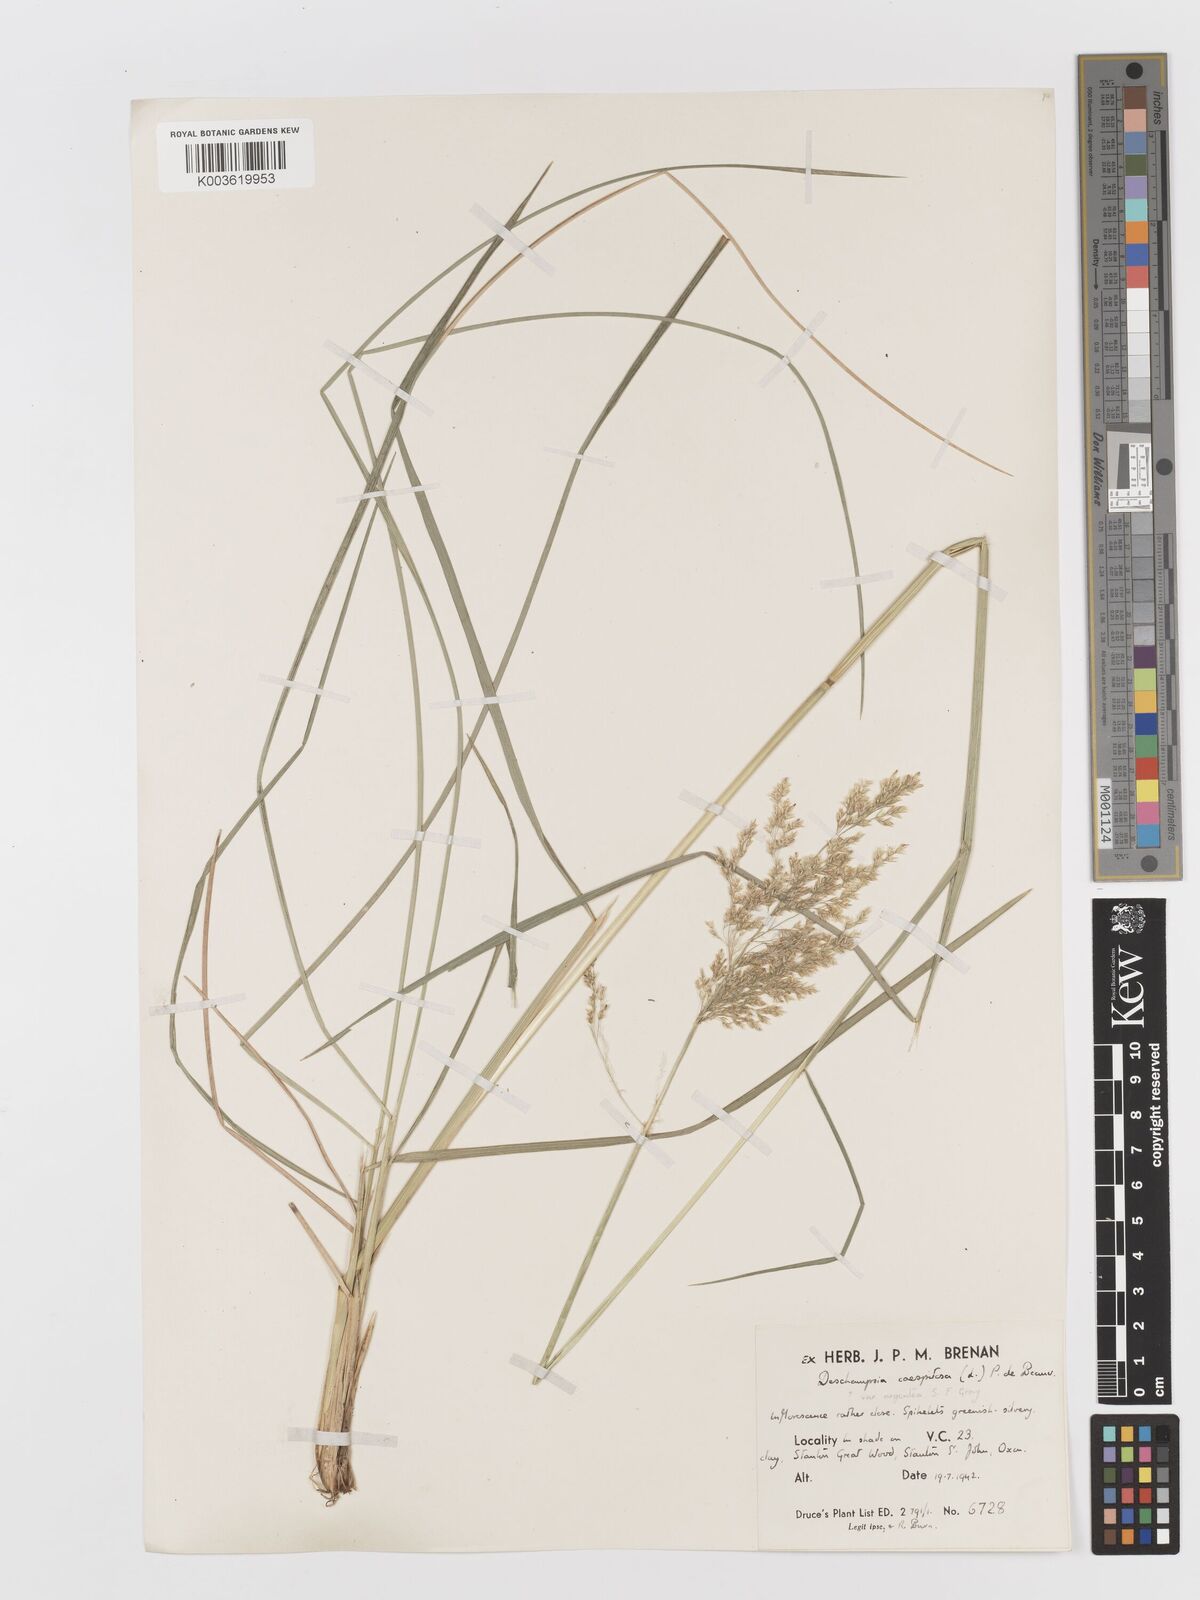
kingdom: Plantae
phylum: Tracheophyta
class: Liliopsida
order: Poales
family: Poaceae
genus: Deschampsia
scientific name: Deschampsia cespitosa
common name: Tufted hair-grass
